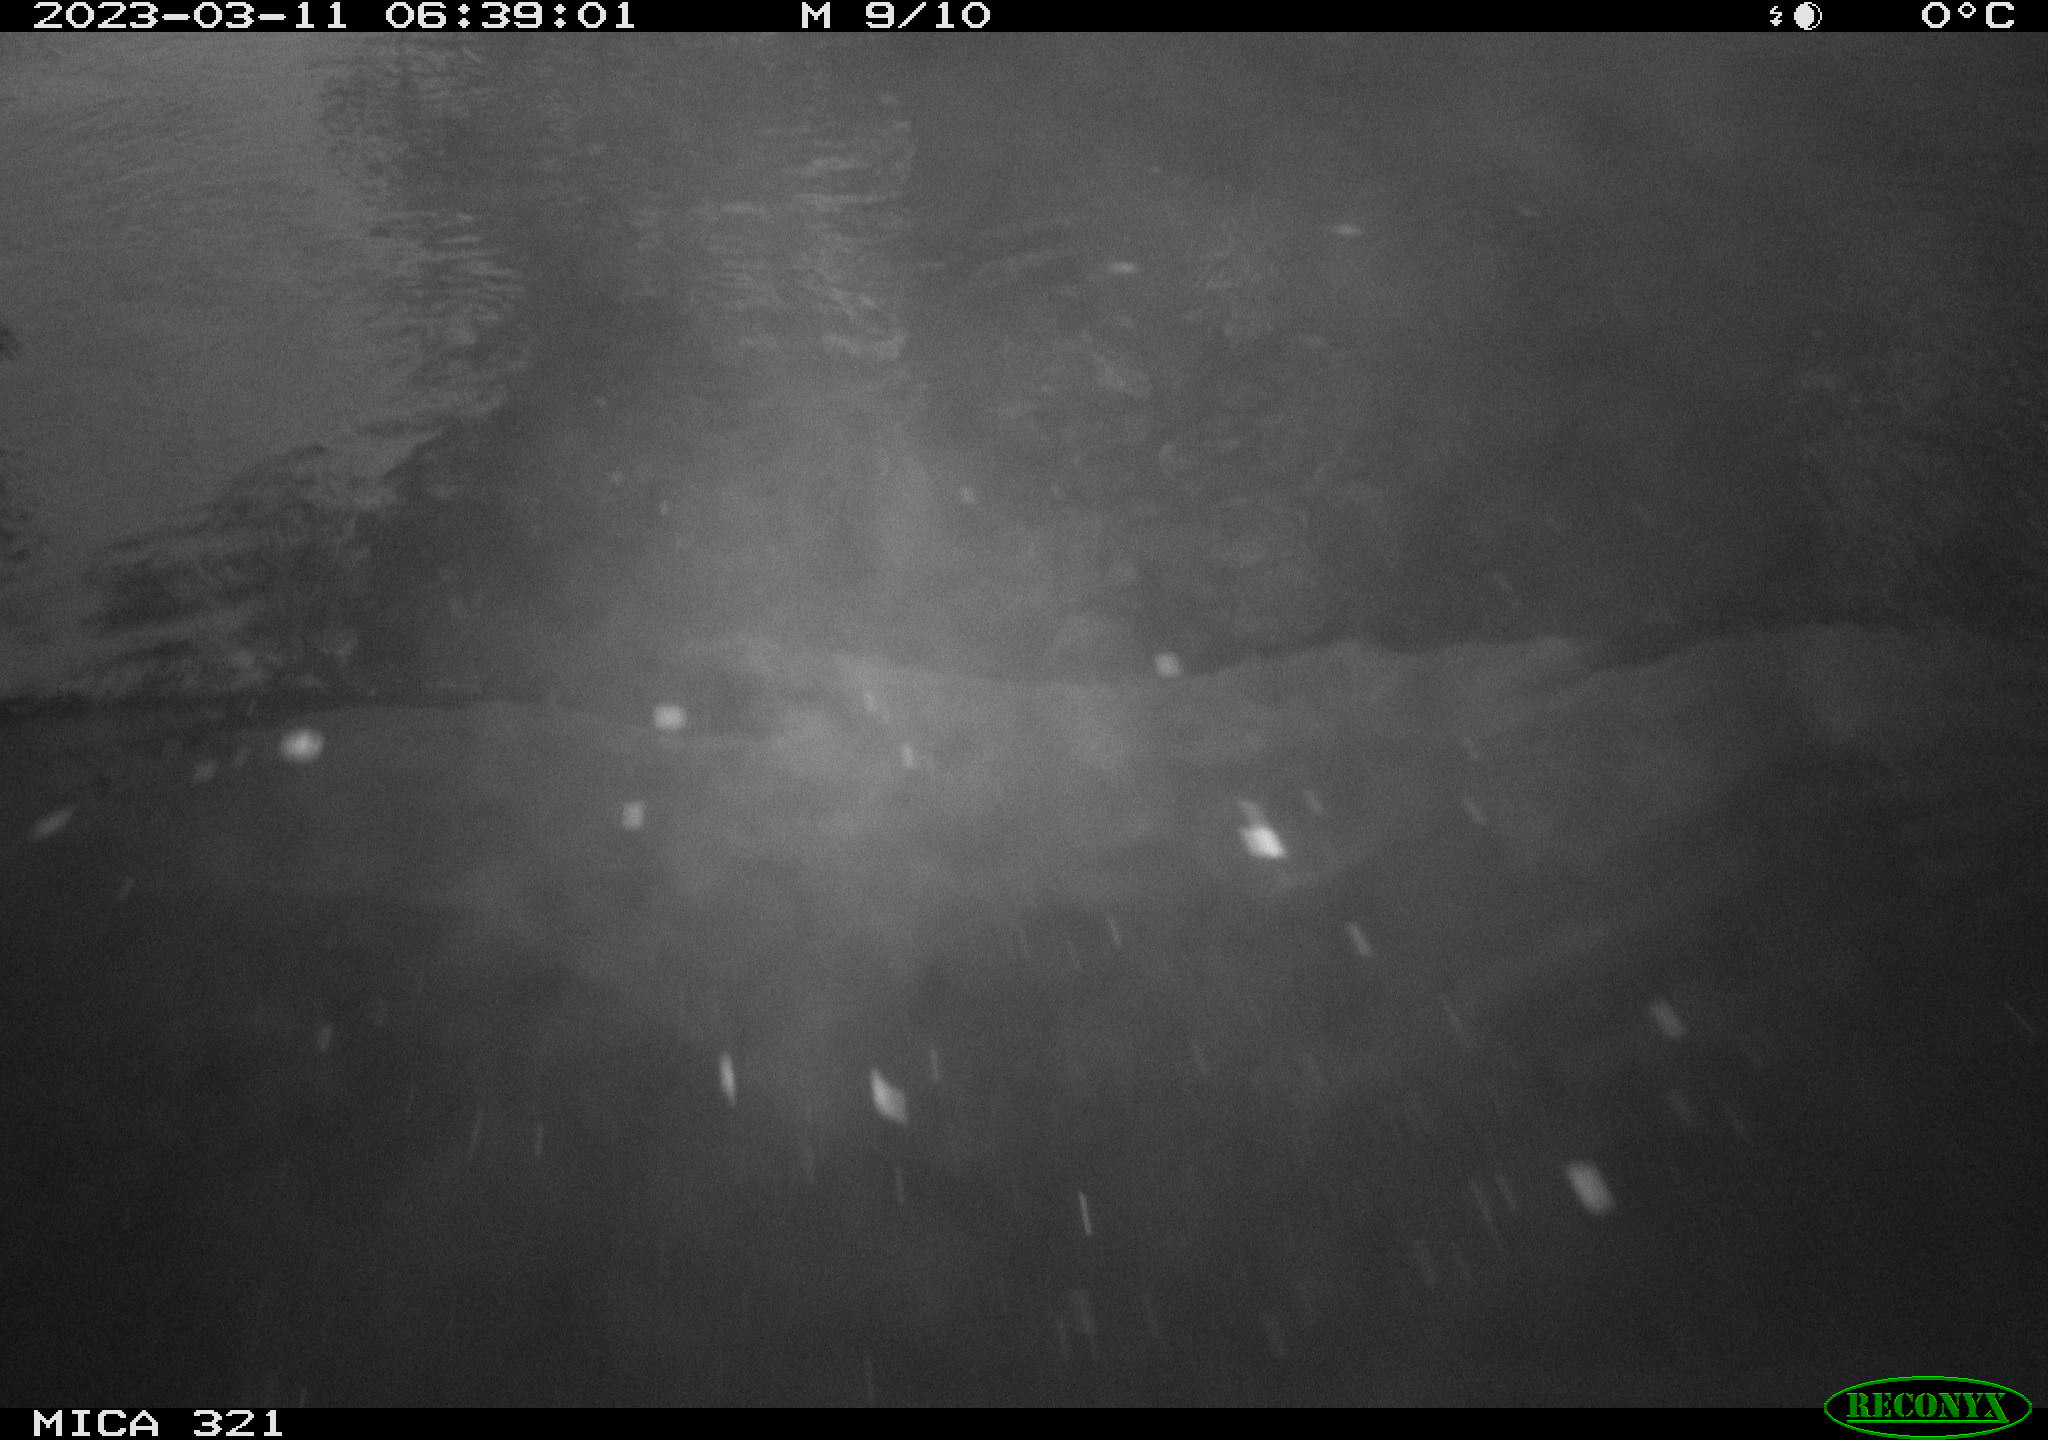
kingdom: Animalia
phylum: Chordata
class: Mammalia
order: Rodentia
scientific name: Rodentia
